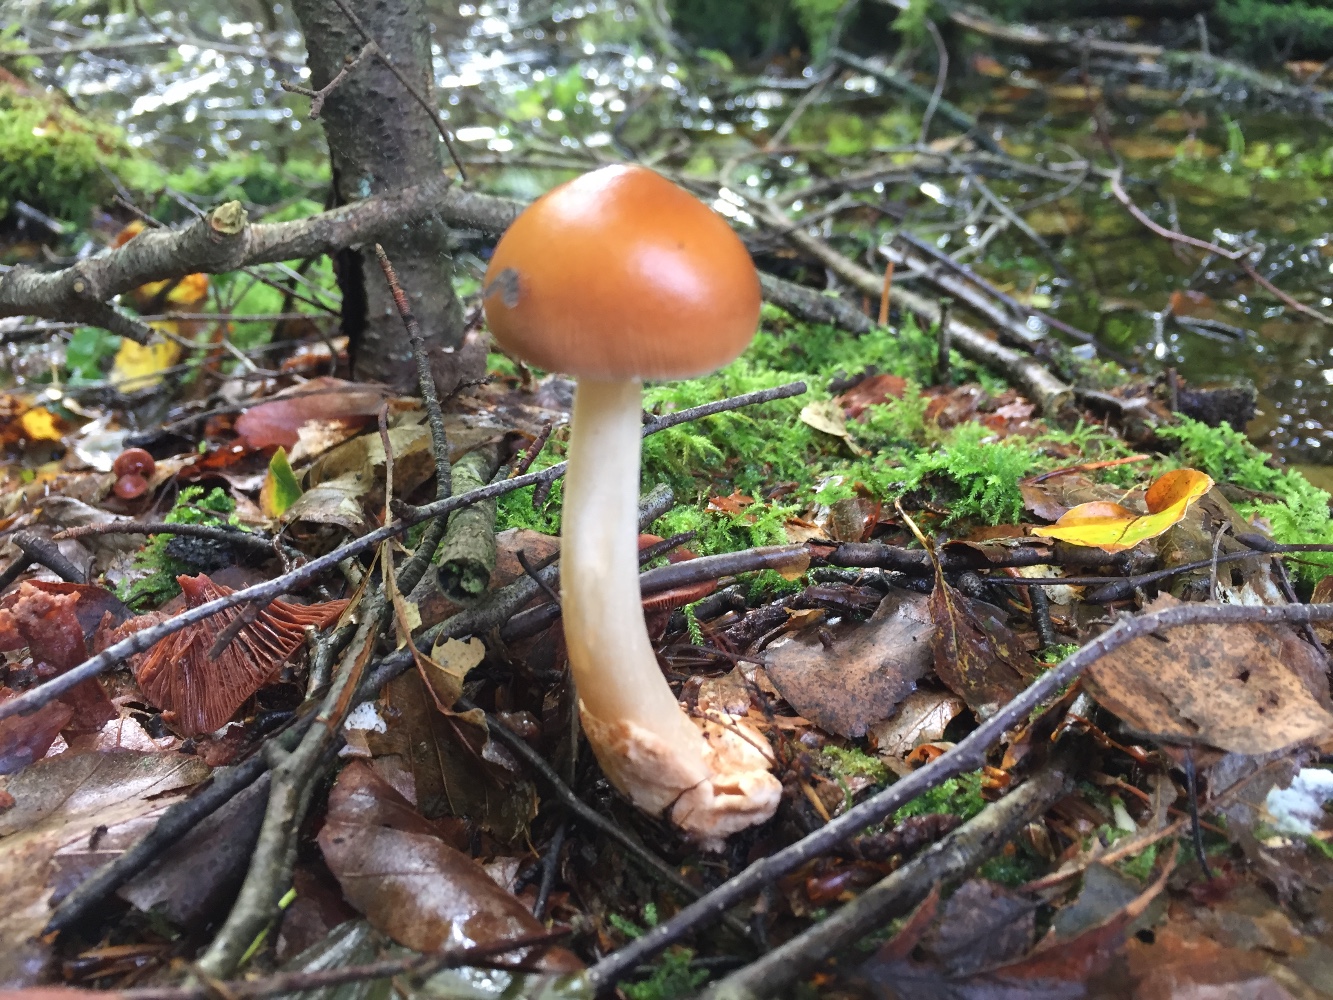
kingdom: Fungi
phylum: Basidiomycota
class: Agaricomycetes
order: Agaricales
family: Amanitaceae
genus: Amanita
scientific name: Amanita fulva
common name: brun kam-fluesvamp
